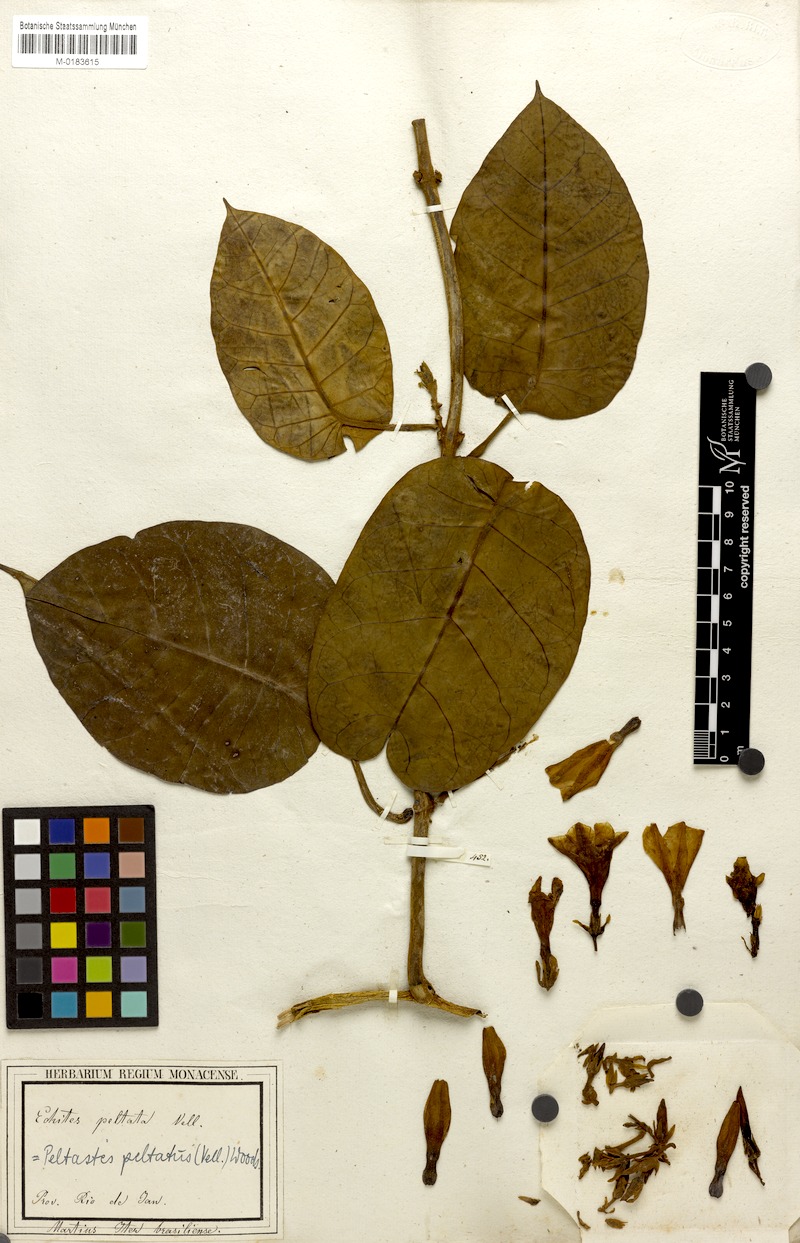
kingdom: Plantae
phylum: Tracheophyta
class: Magnoliopsida
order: Gentianales
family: Apocynaceae
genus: Macropharynx
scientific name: Macropharynx peltata
